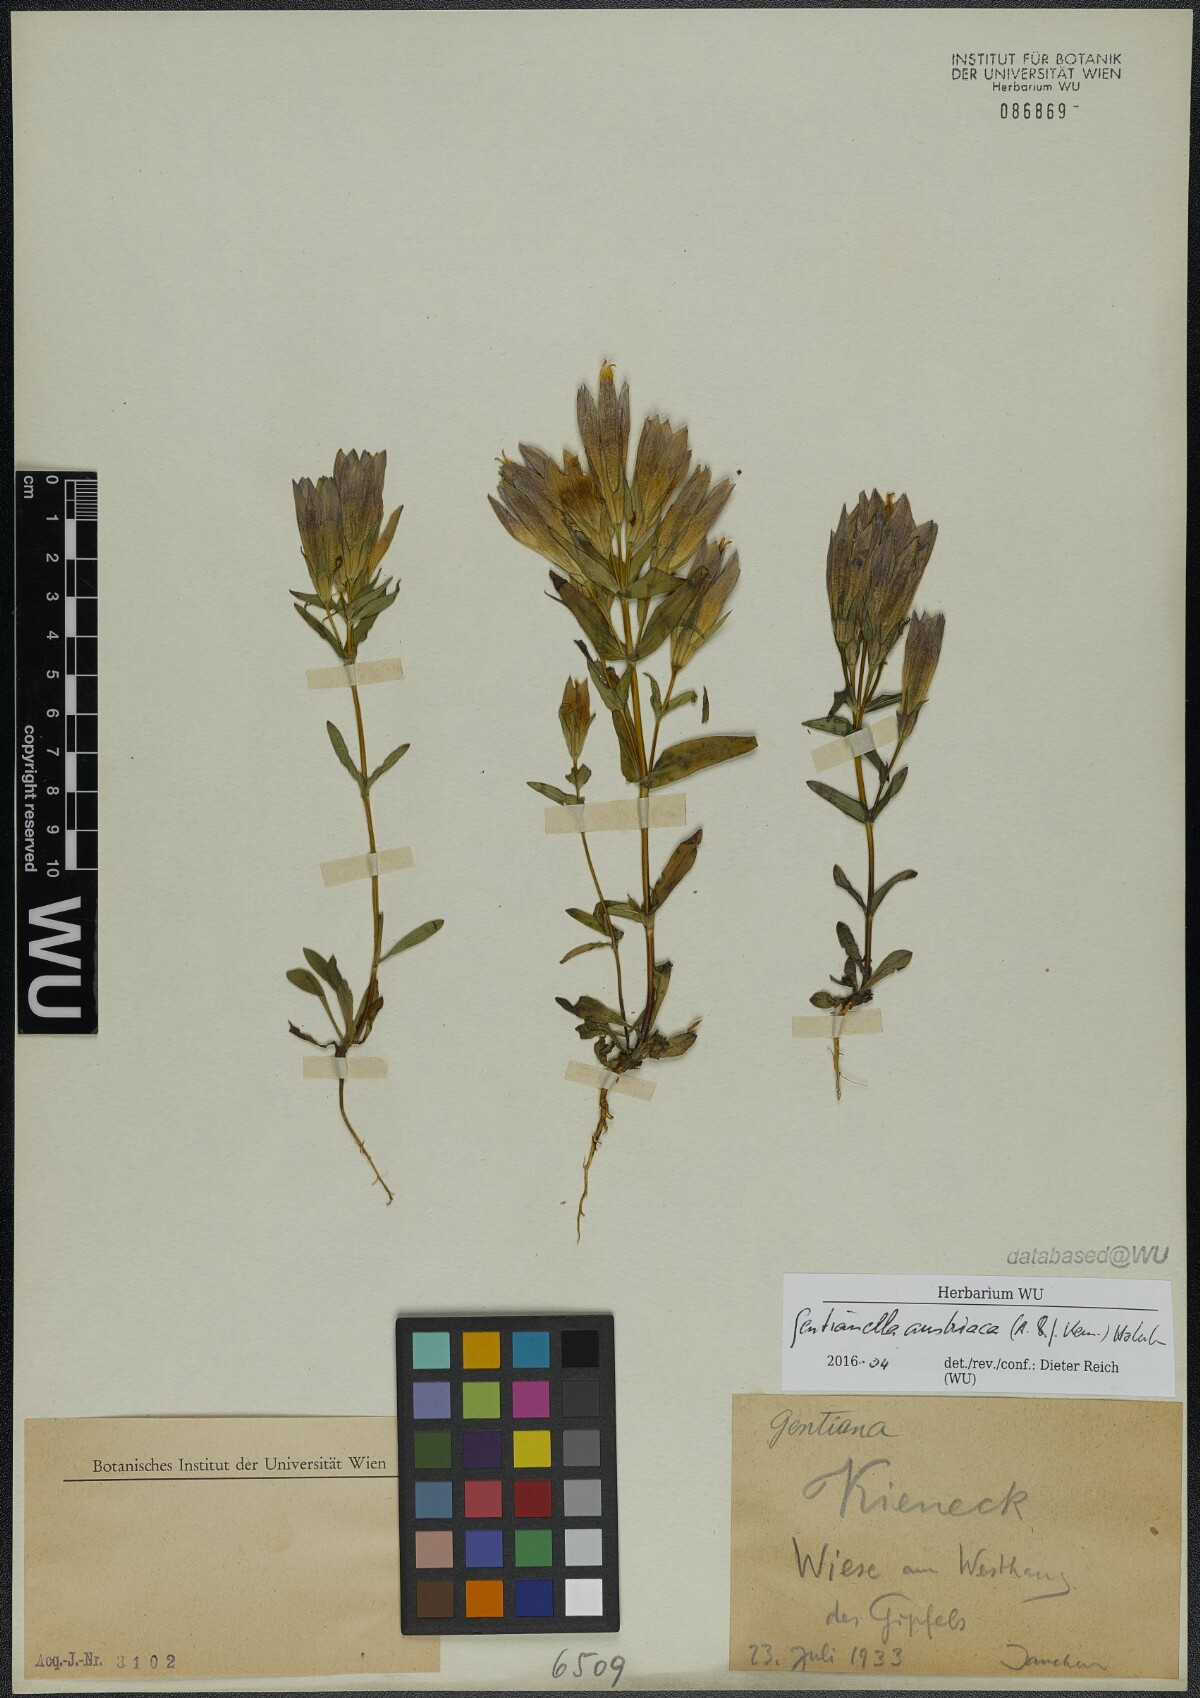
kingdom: Plantae
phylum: Tracheophyta
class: Magnoliopsida
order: Gentianales
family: Gentianaceae
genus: Gentianella
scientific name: Gentianella austriaca
